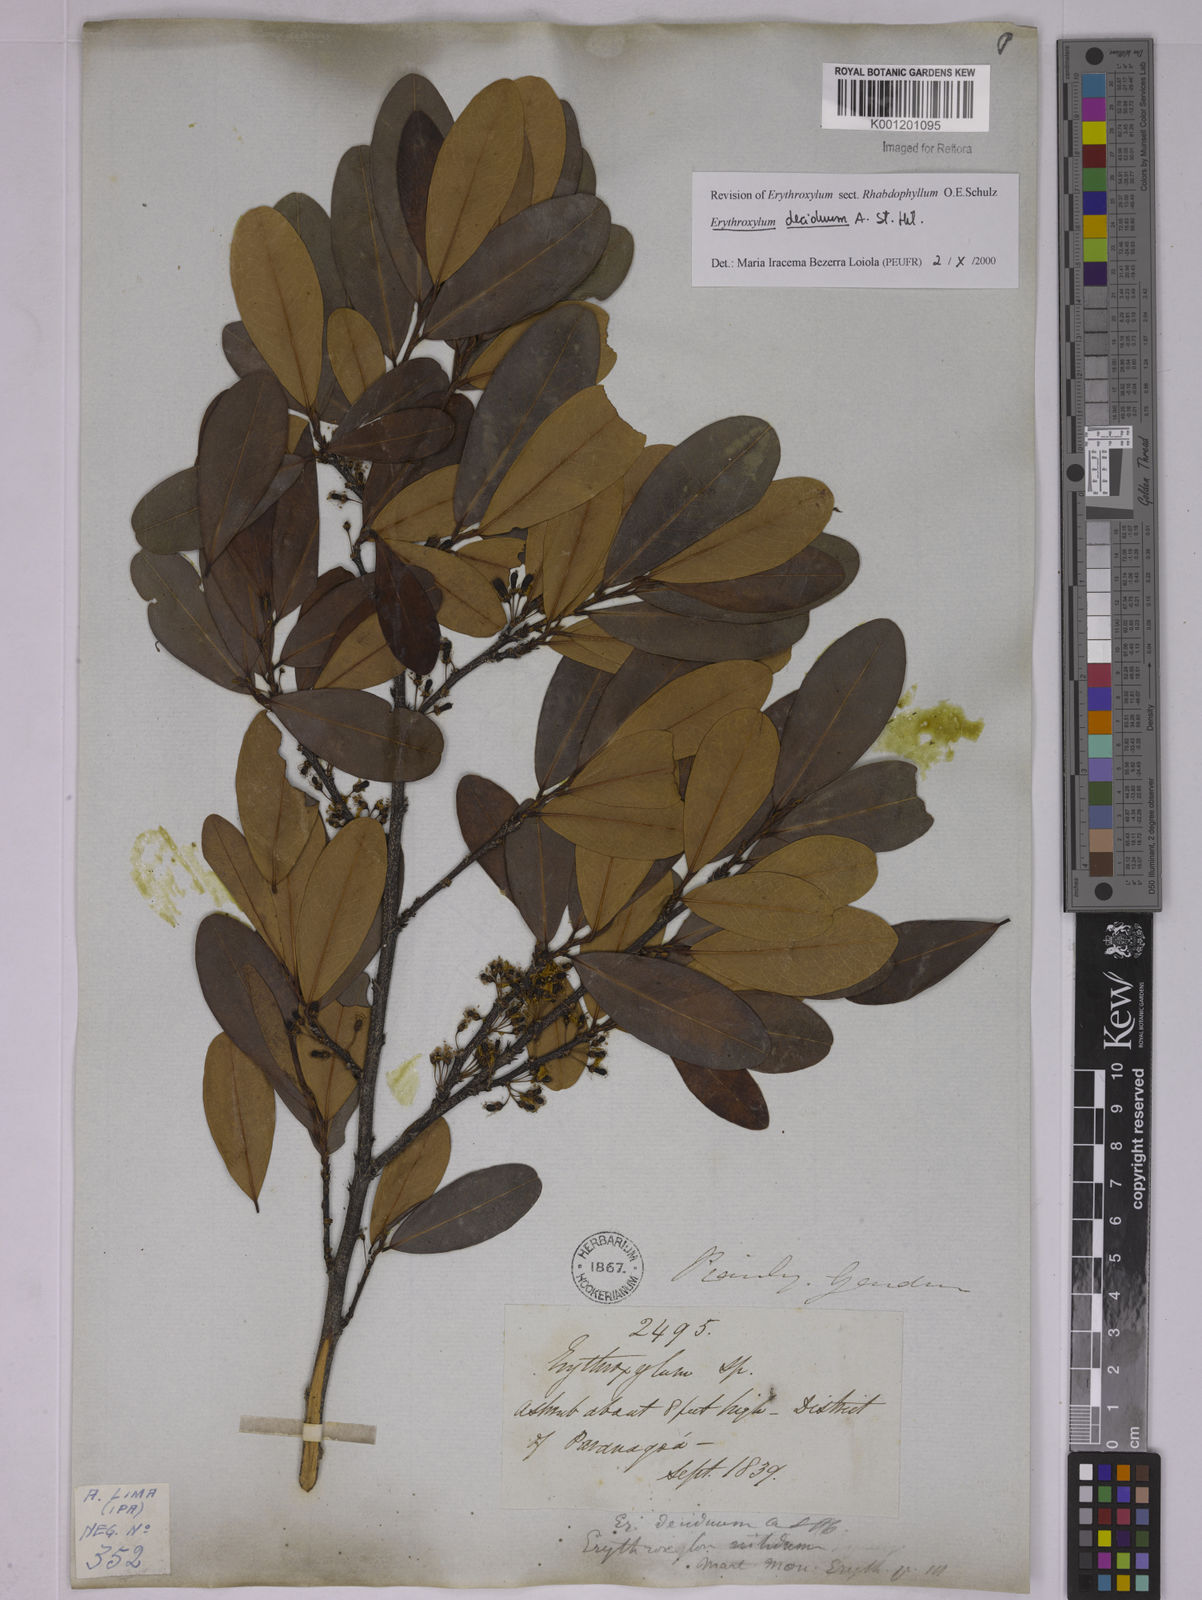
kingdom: Plantae
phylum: Tracheophyta
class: Magnoliopsida
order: Malpighiales
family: Erythroxylaceae
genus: Erythroxylum
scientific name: Erythroxylum deciduum
